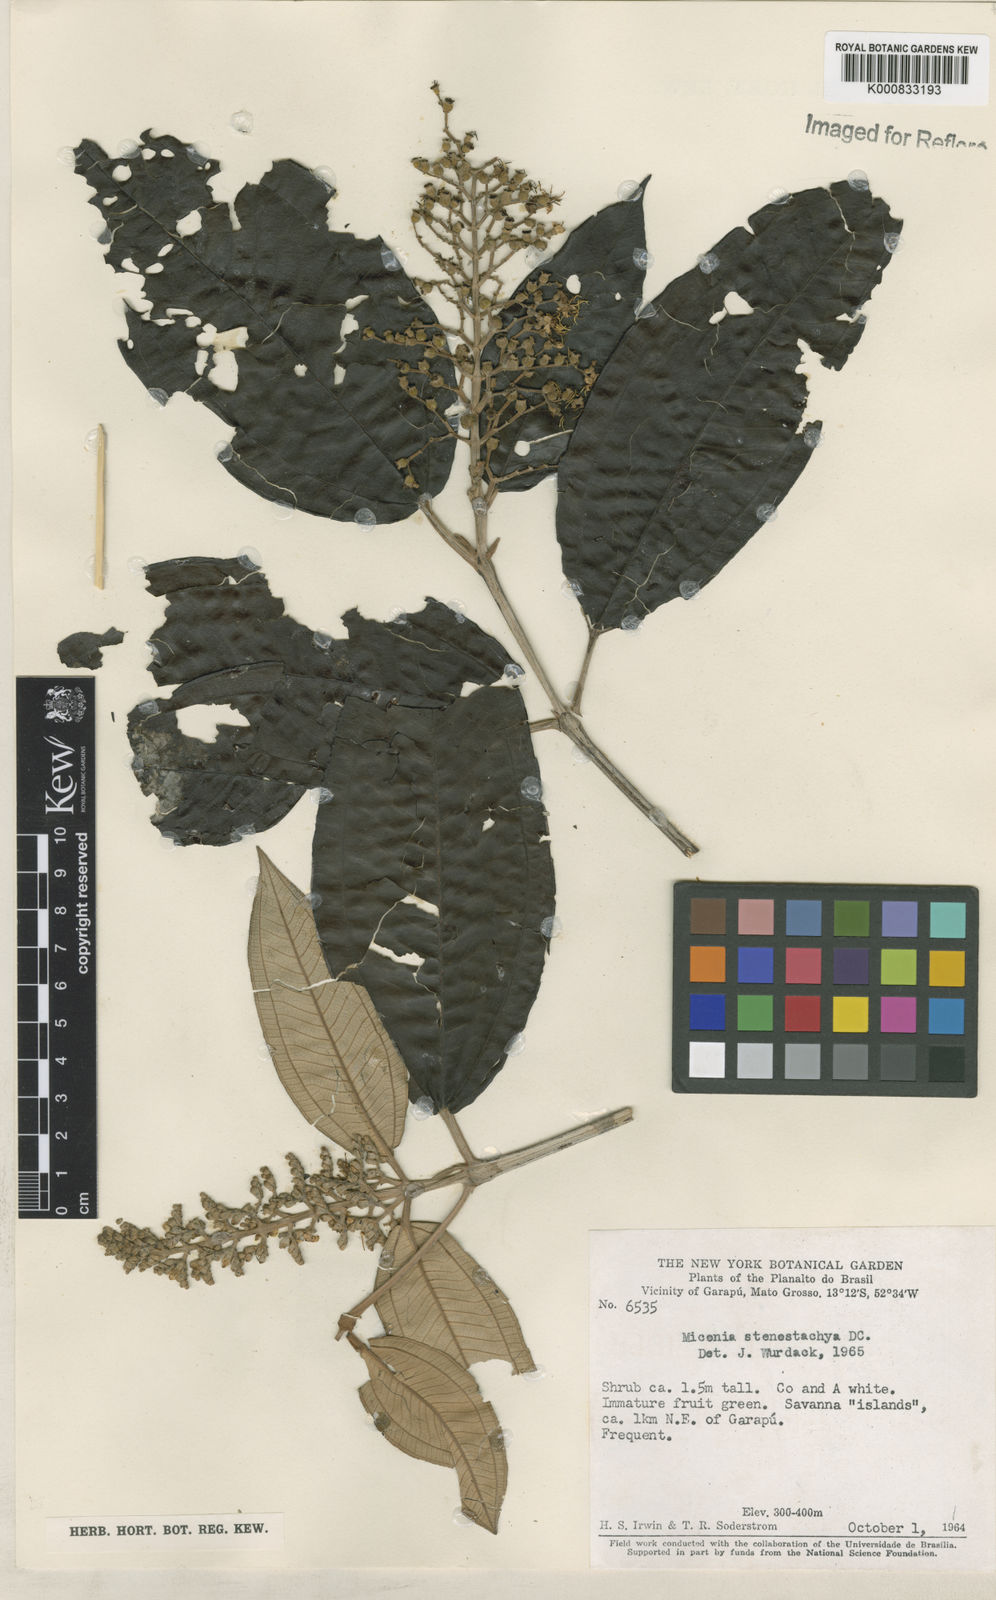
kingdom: Plantae
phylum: Tracheophyta
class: Magnoliopsida
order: Myrtales
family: Melastomataceae
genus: Miconia
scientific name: Miconia stenostachya
